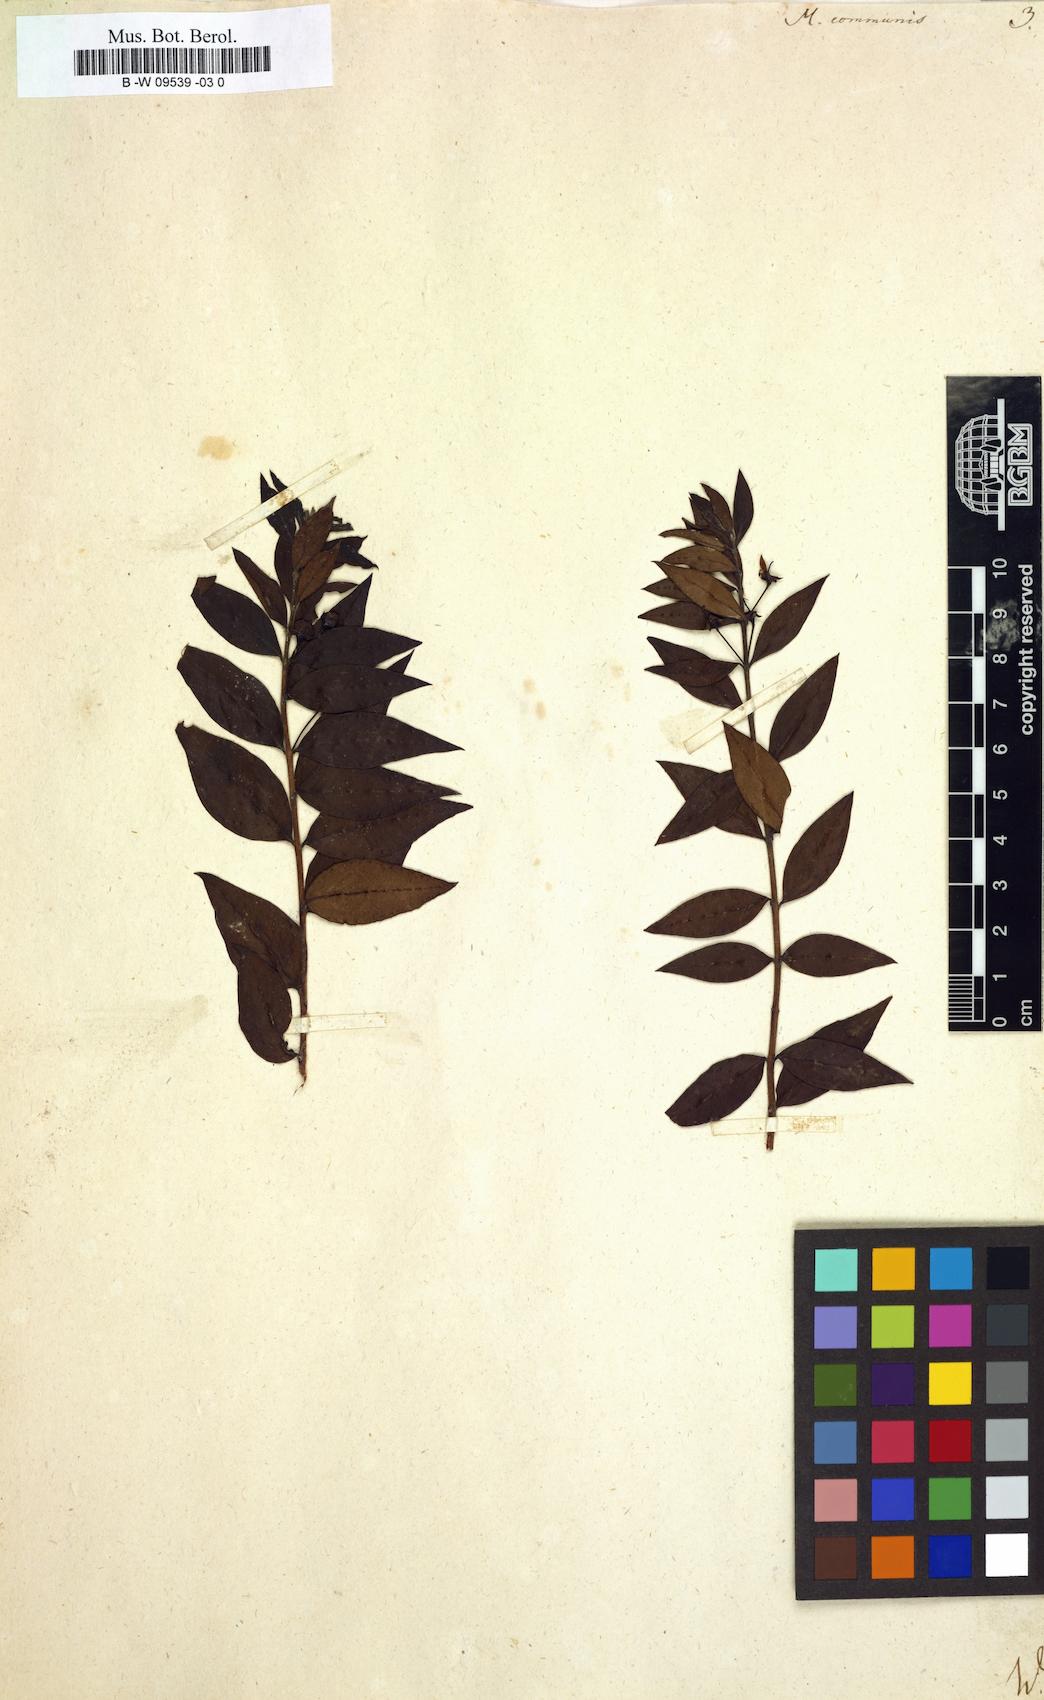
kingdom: Plantae
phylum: Tracheophyta
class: Magnoliopsida
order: Myrtales
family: Myrtaceae
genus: Myrtus
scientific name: Myrtus communis
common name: Myrtle
